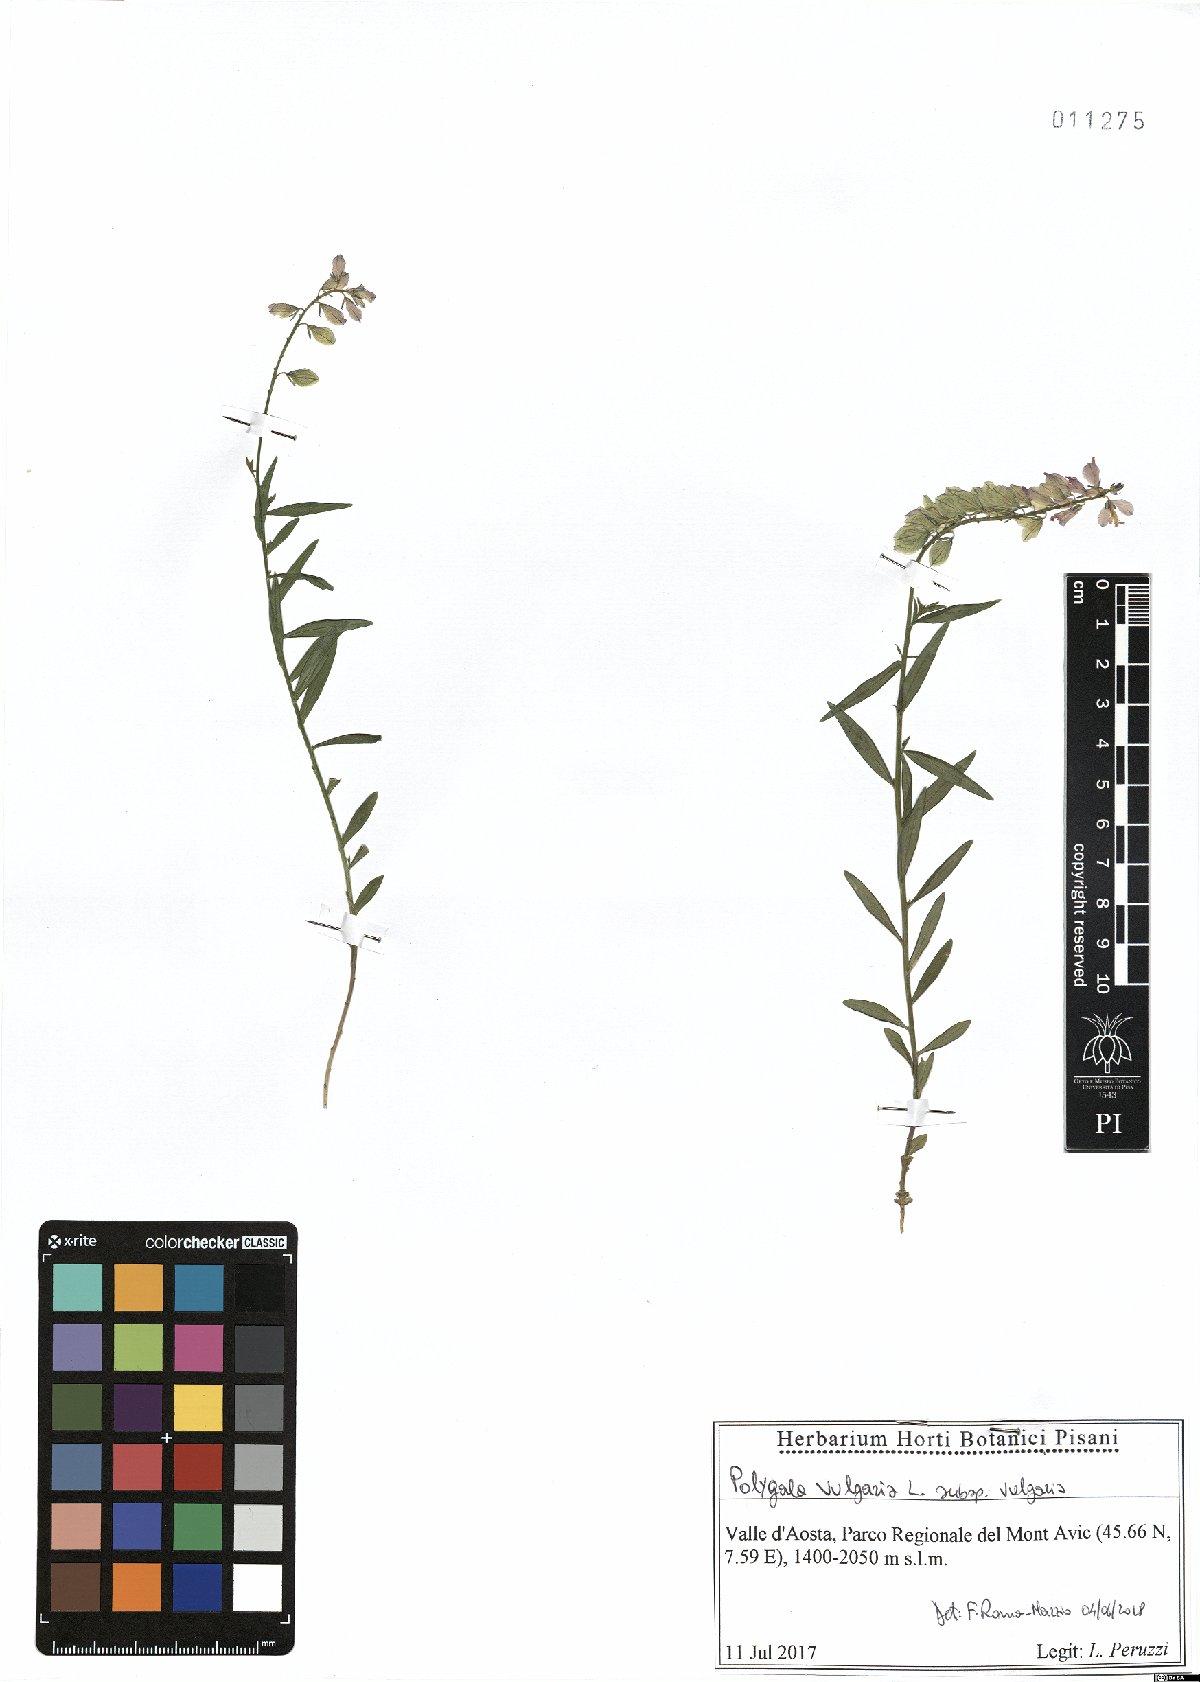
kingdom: Plantae
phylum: Tracheophyta
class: Magnoliopsida
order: Fabales
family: Polygalaceae
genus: Polygala
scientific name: Polygala vulgaris
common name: Common milkwort
